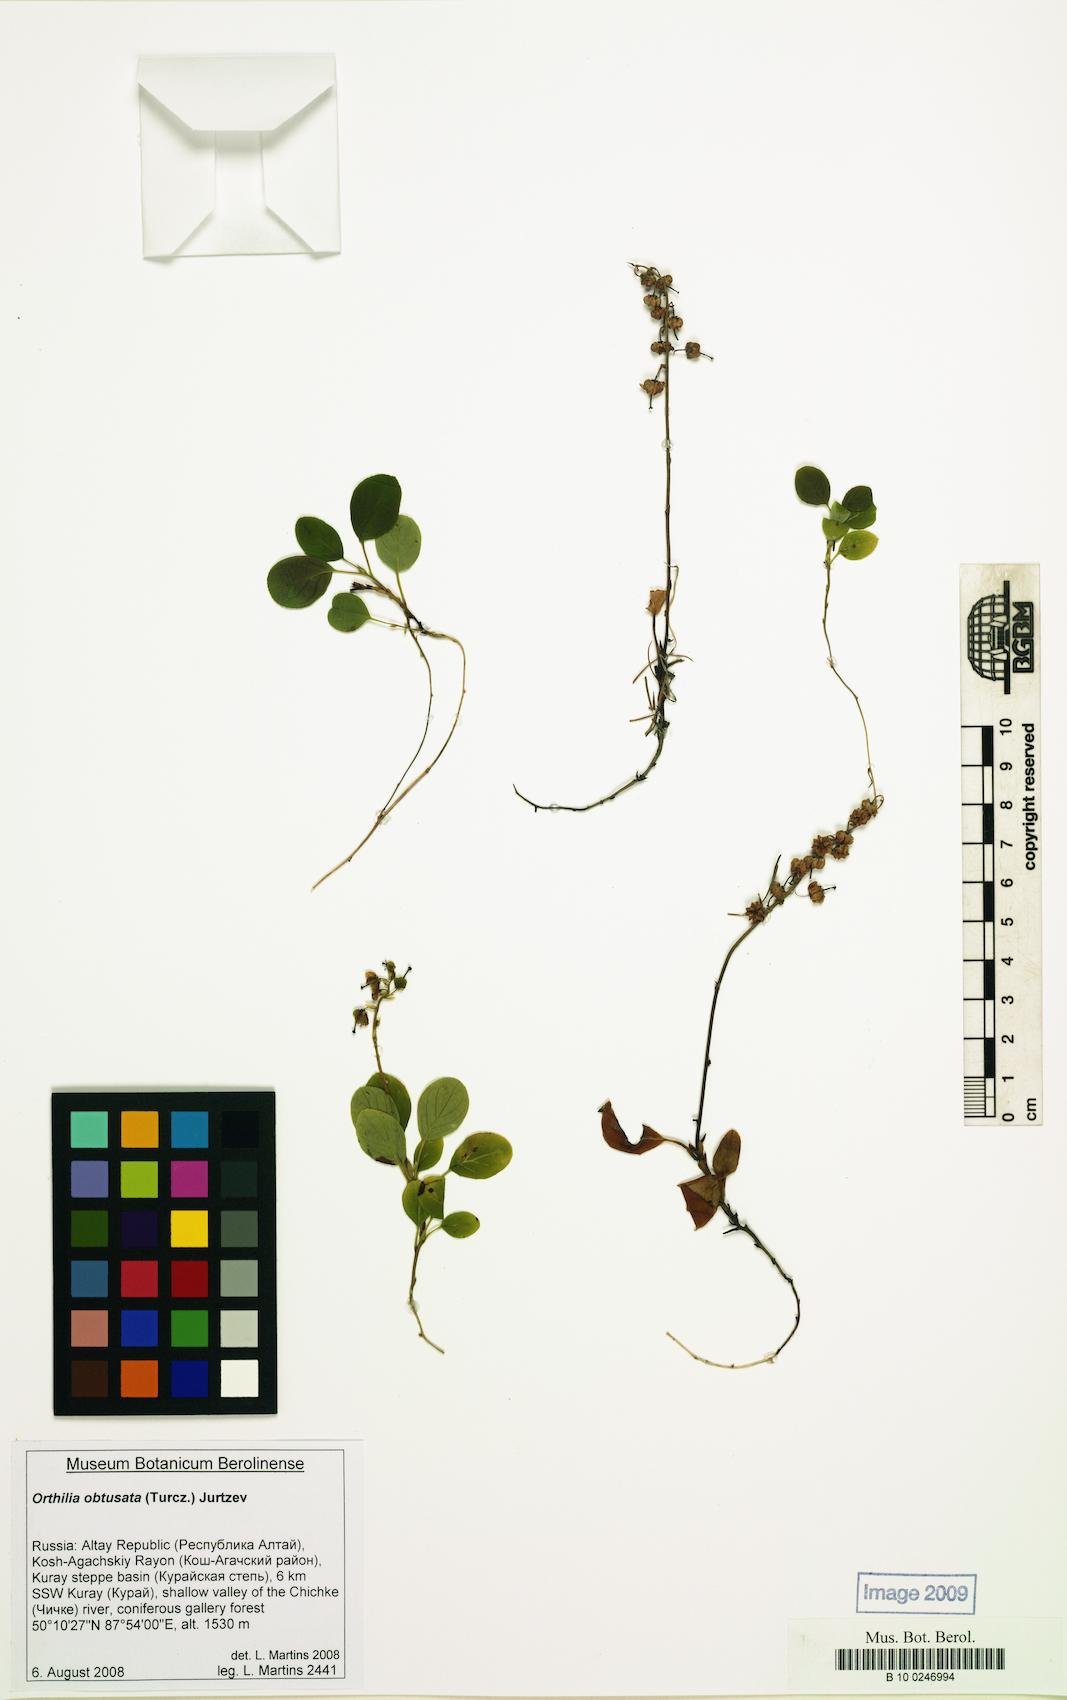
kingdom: Plantae
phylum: Tracheophyta
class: Magnoliopsida
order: Ericales
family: Ericaceae
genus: Orthilia
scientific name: Orthilia secunda
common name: One-sided orthilia
